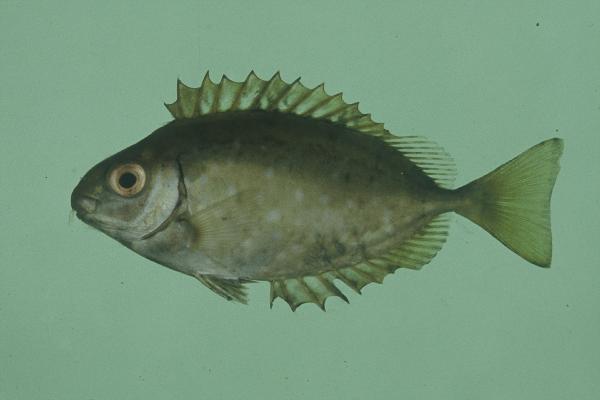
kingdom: Animalia
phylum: Chordata
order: Perciformes
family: Siganidae
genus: Siganus
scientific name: Siganus sutor
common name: Shoemaker spinefoot
